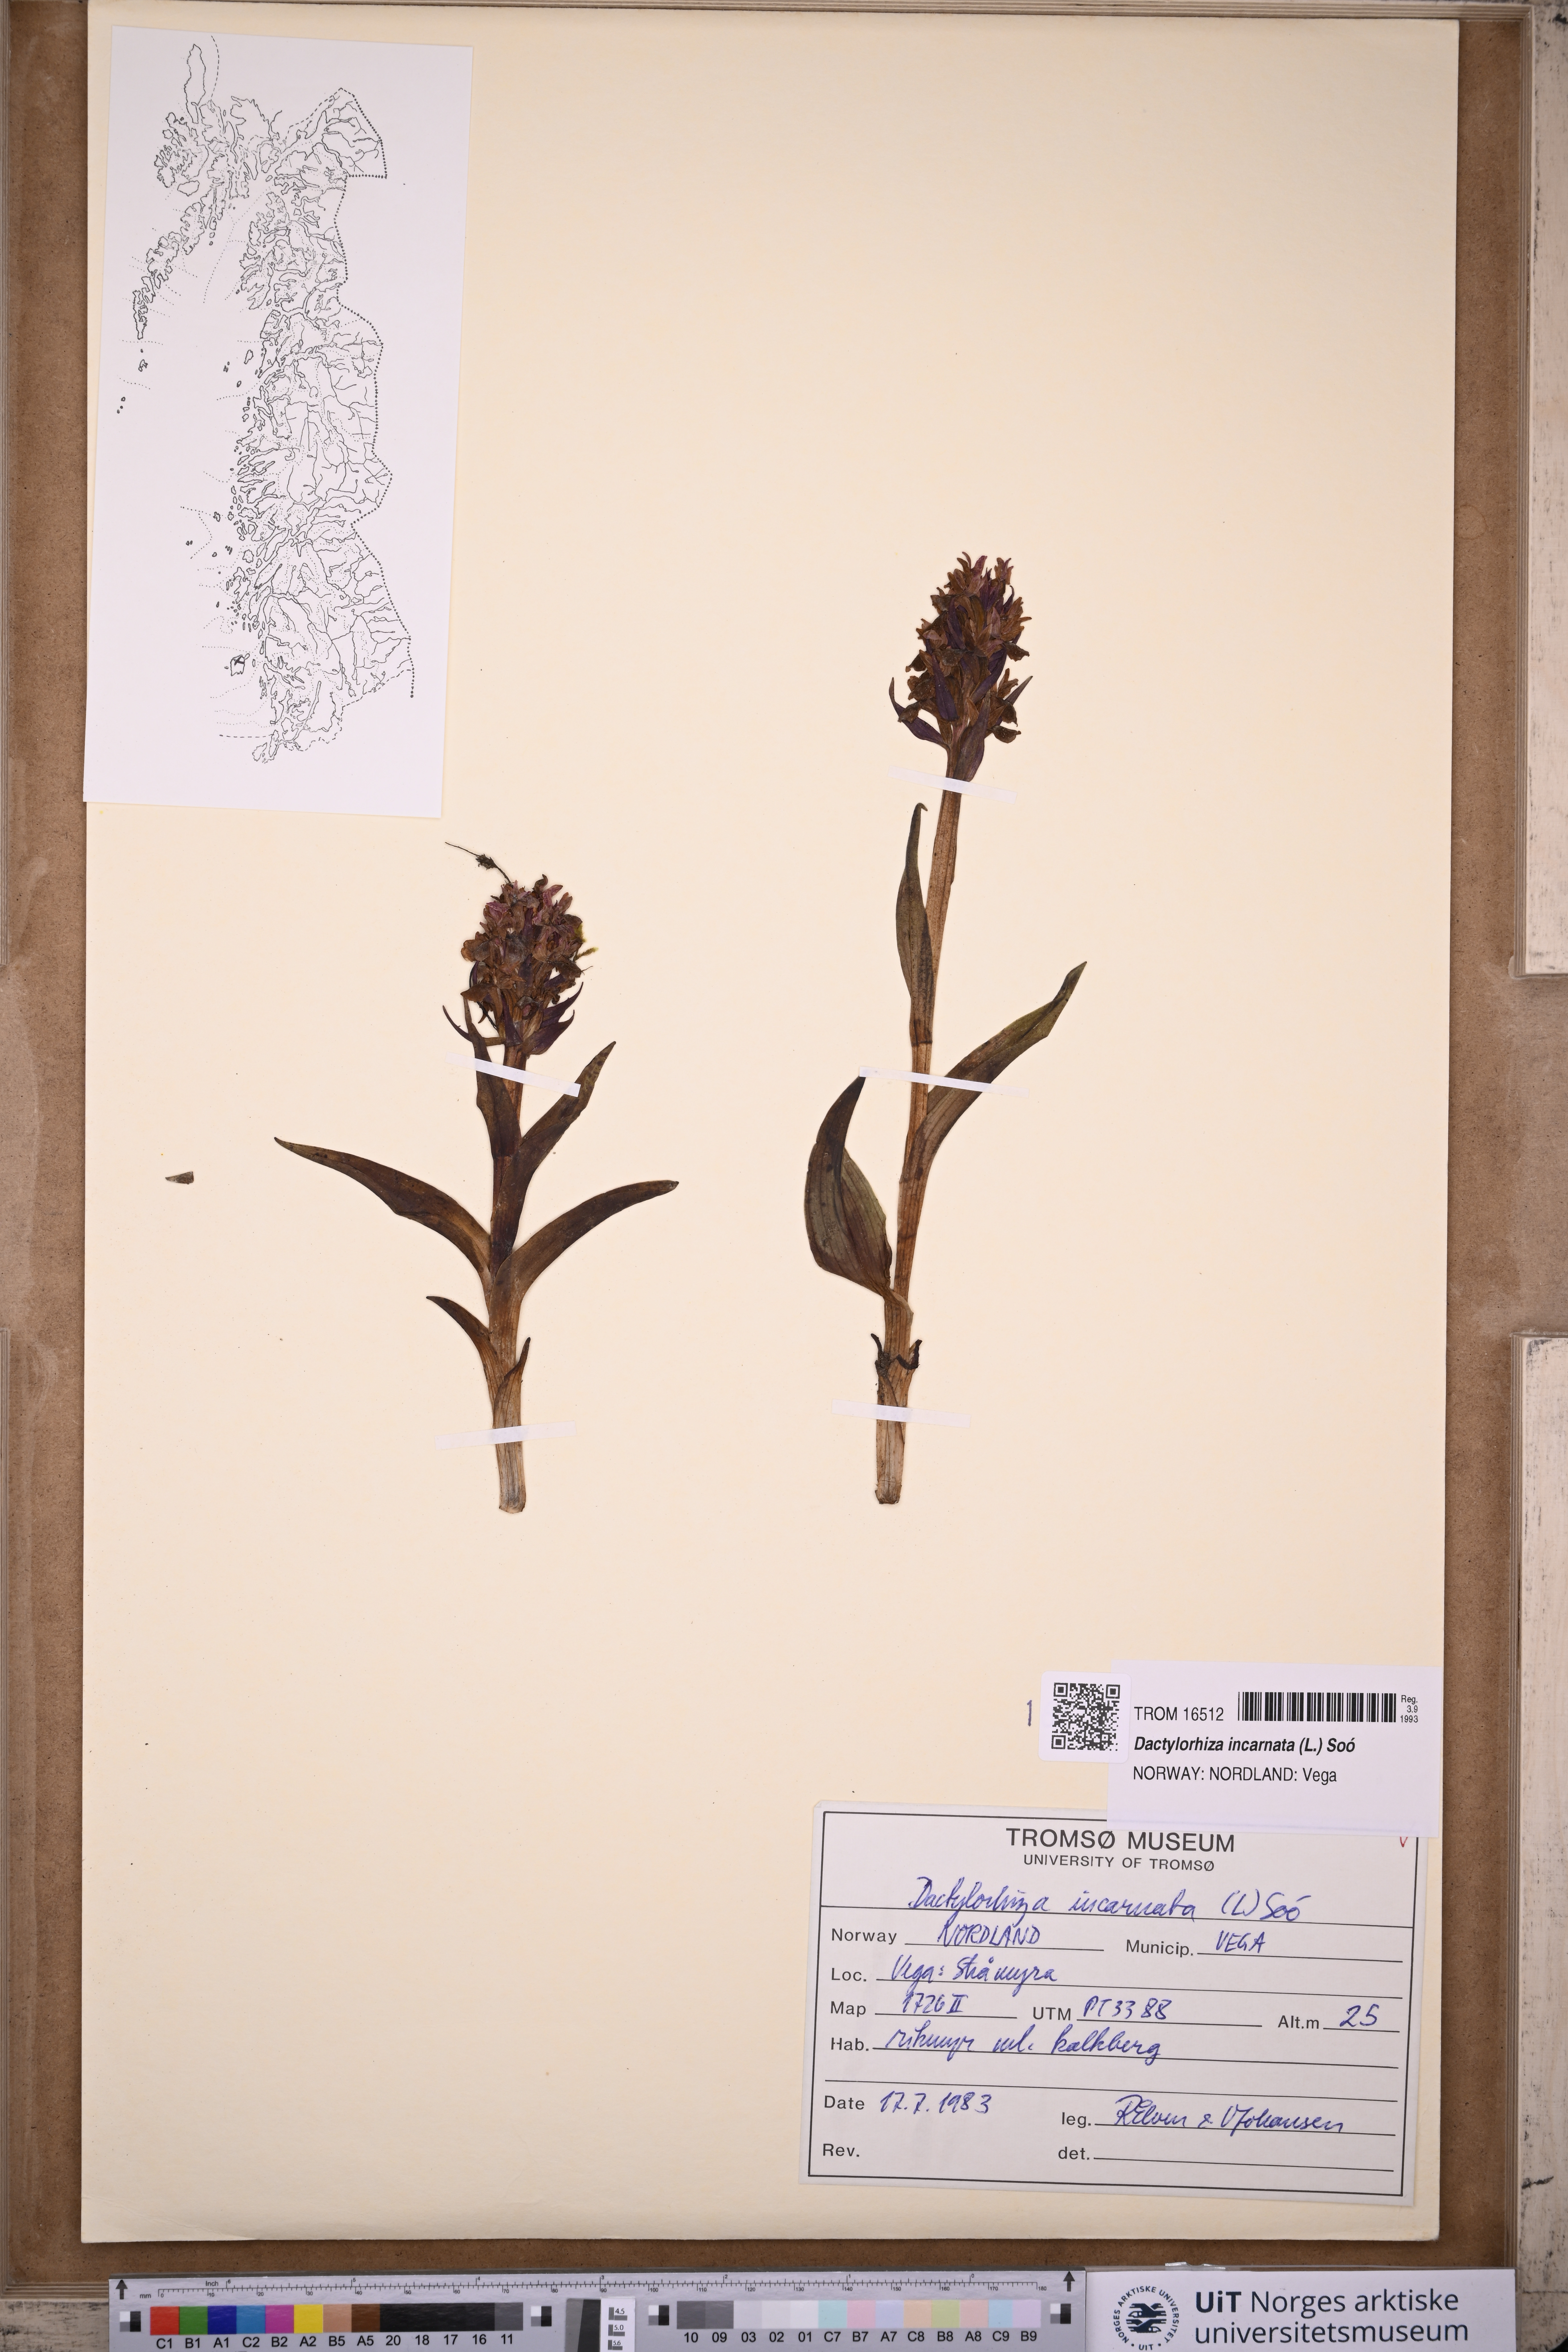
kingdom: Plantae
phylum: Tracheophyta
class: Liliopsida
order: Asparagales
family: Orchidaceae
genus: Dactylorhiza
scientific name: Dactylorhiza incarnata
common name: Early marsh-orchid
